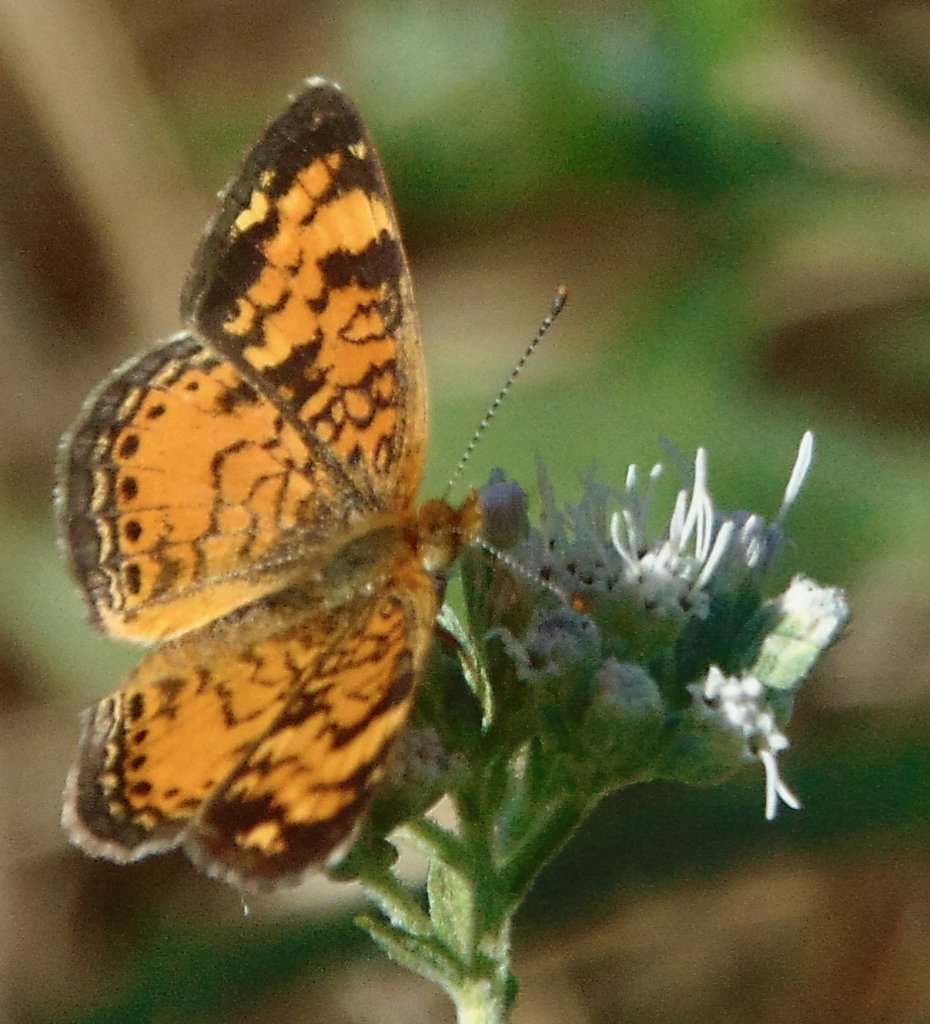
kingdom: Animalia
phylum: Arthropoda
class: Insecta
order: Lepidoptera
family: Nymphalidae
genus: Phyciodes
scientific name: Phyciodes tharos
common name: Pearl Crescent
